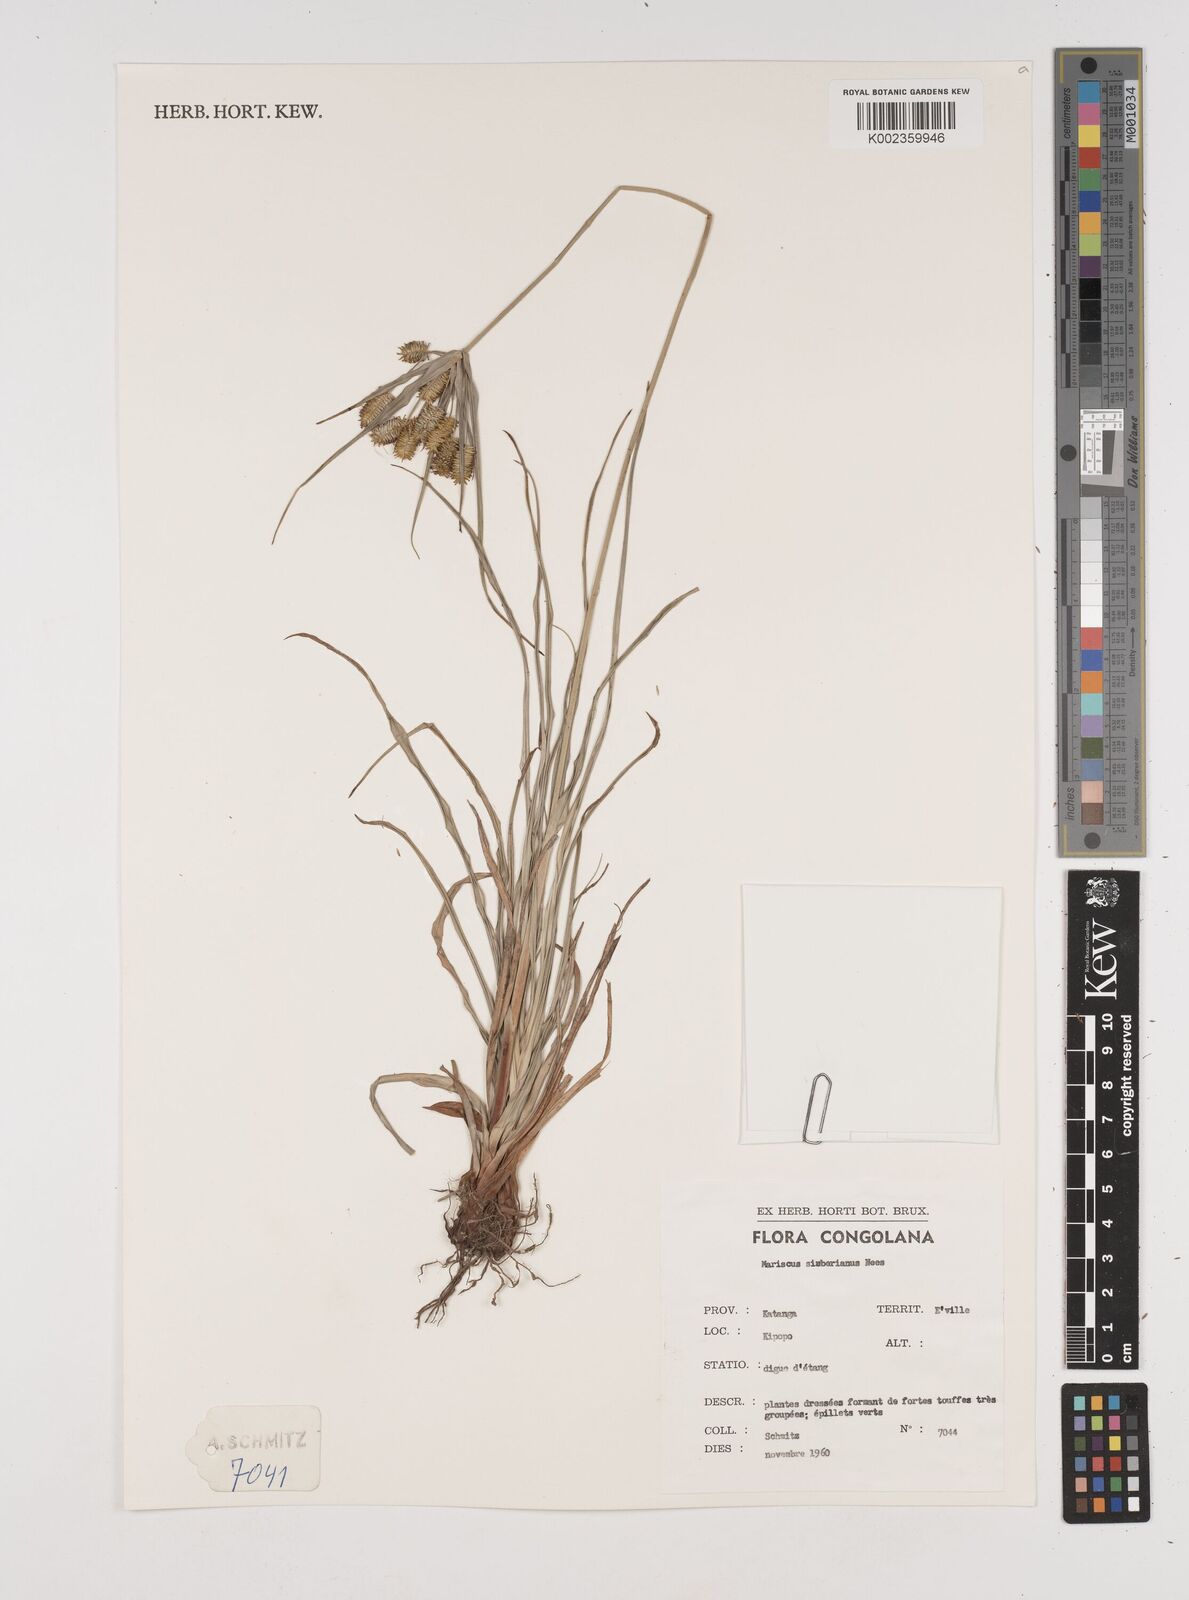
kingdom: Plantae
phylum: Tracheophyta
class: Liliopsida
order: Poales
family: Cyperaceae
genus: Cyperus
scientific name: Cyperus cyperoides
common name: Pacific island flat sedge
